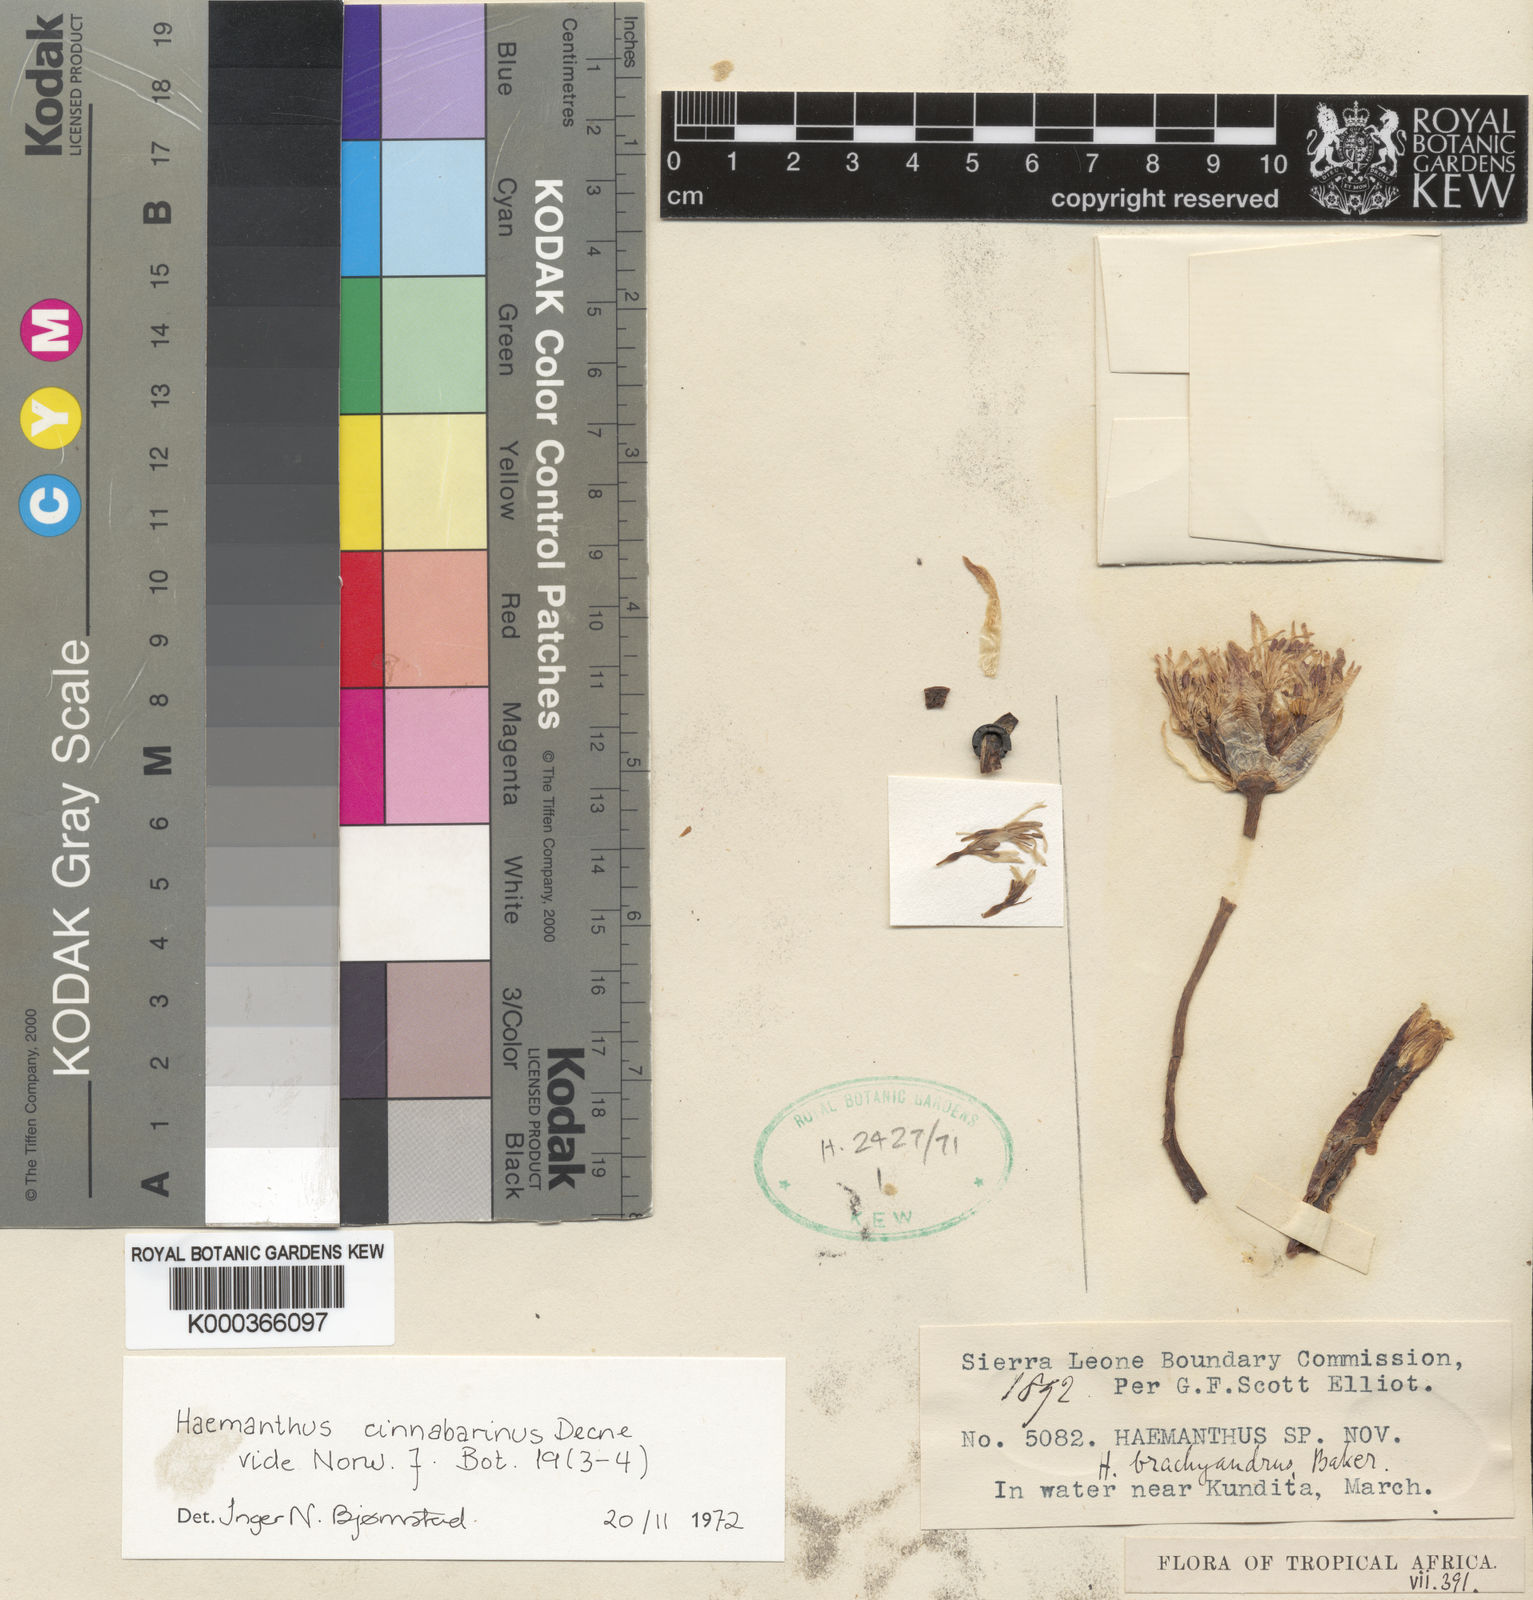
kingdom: Plantae
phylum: Tracheophyta
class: Liliopsida
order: Asparagales
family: Amaryllidaceae
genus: Scadoxus
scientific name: Scadoxus cinnabarinus
